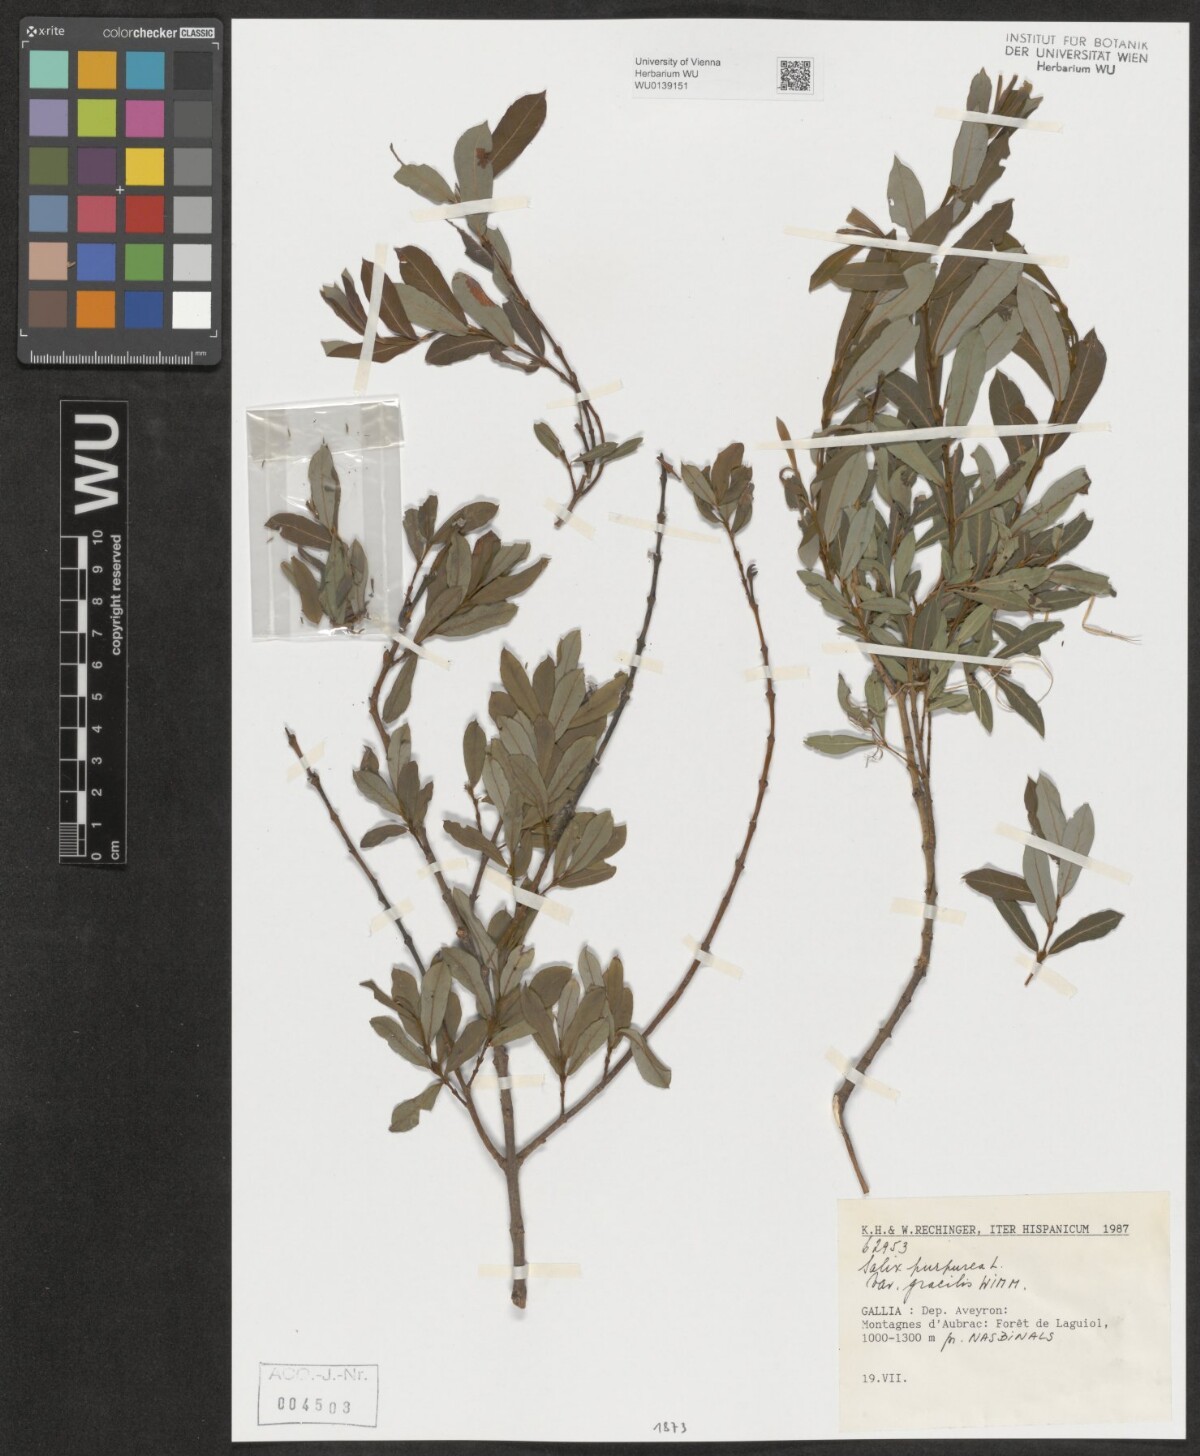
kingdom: Plantae
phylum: Tracheophyta
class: Magnoliopsida
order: Malpighiales
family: Salicaceae
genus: Salix
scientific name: Salix purpurea
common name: Purple willow
